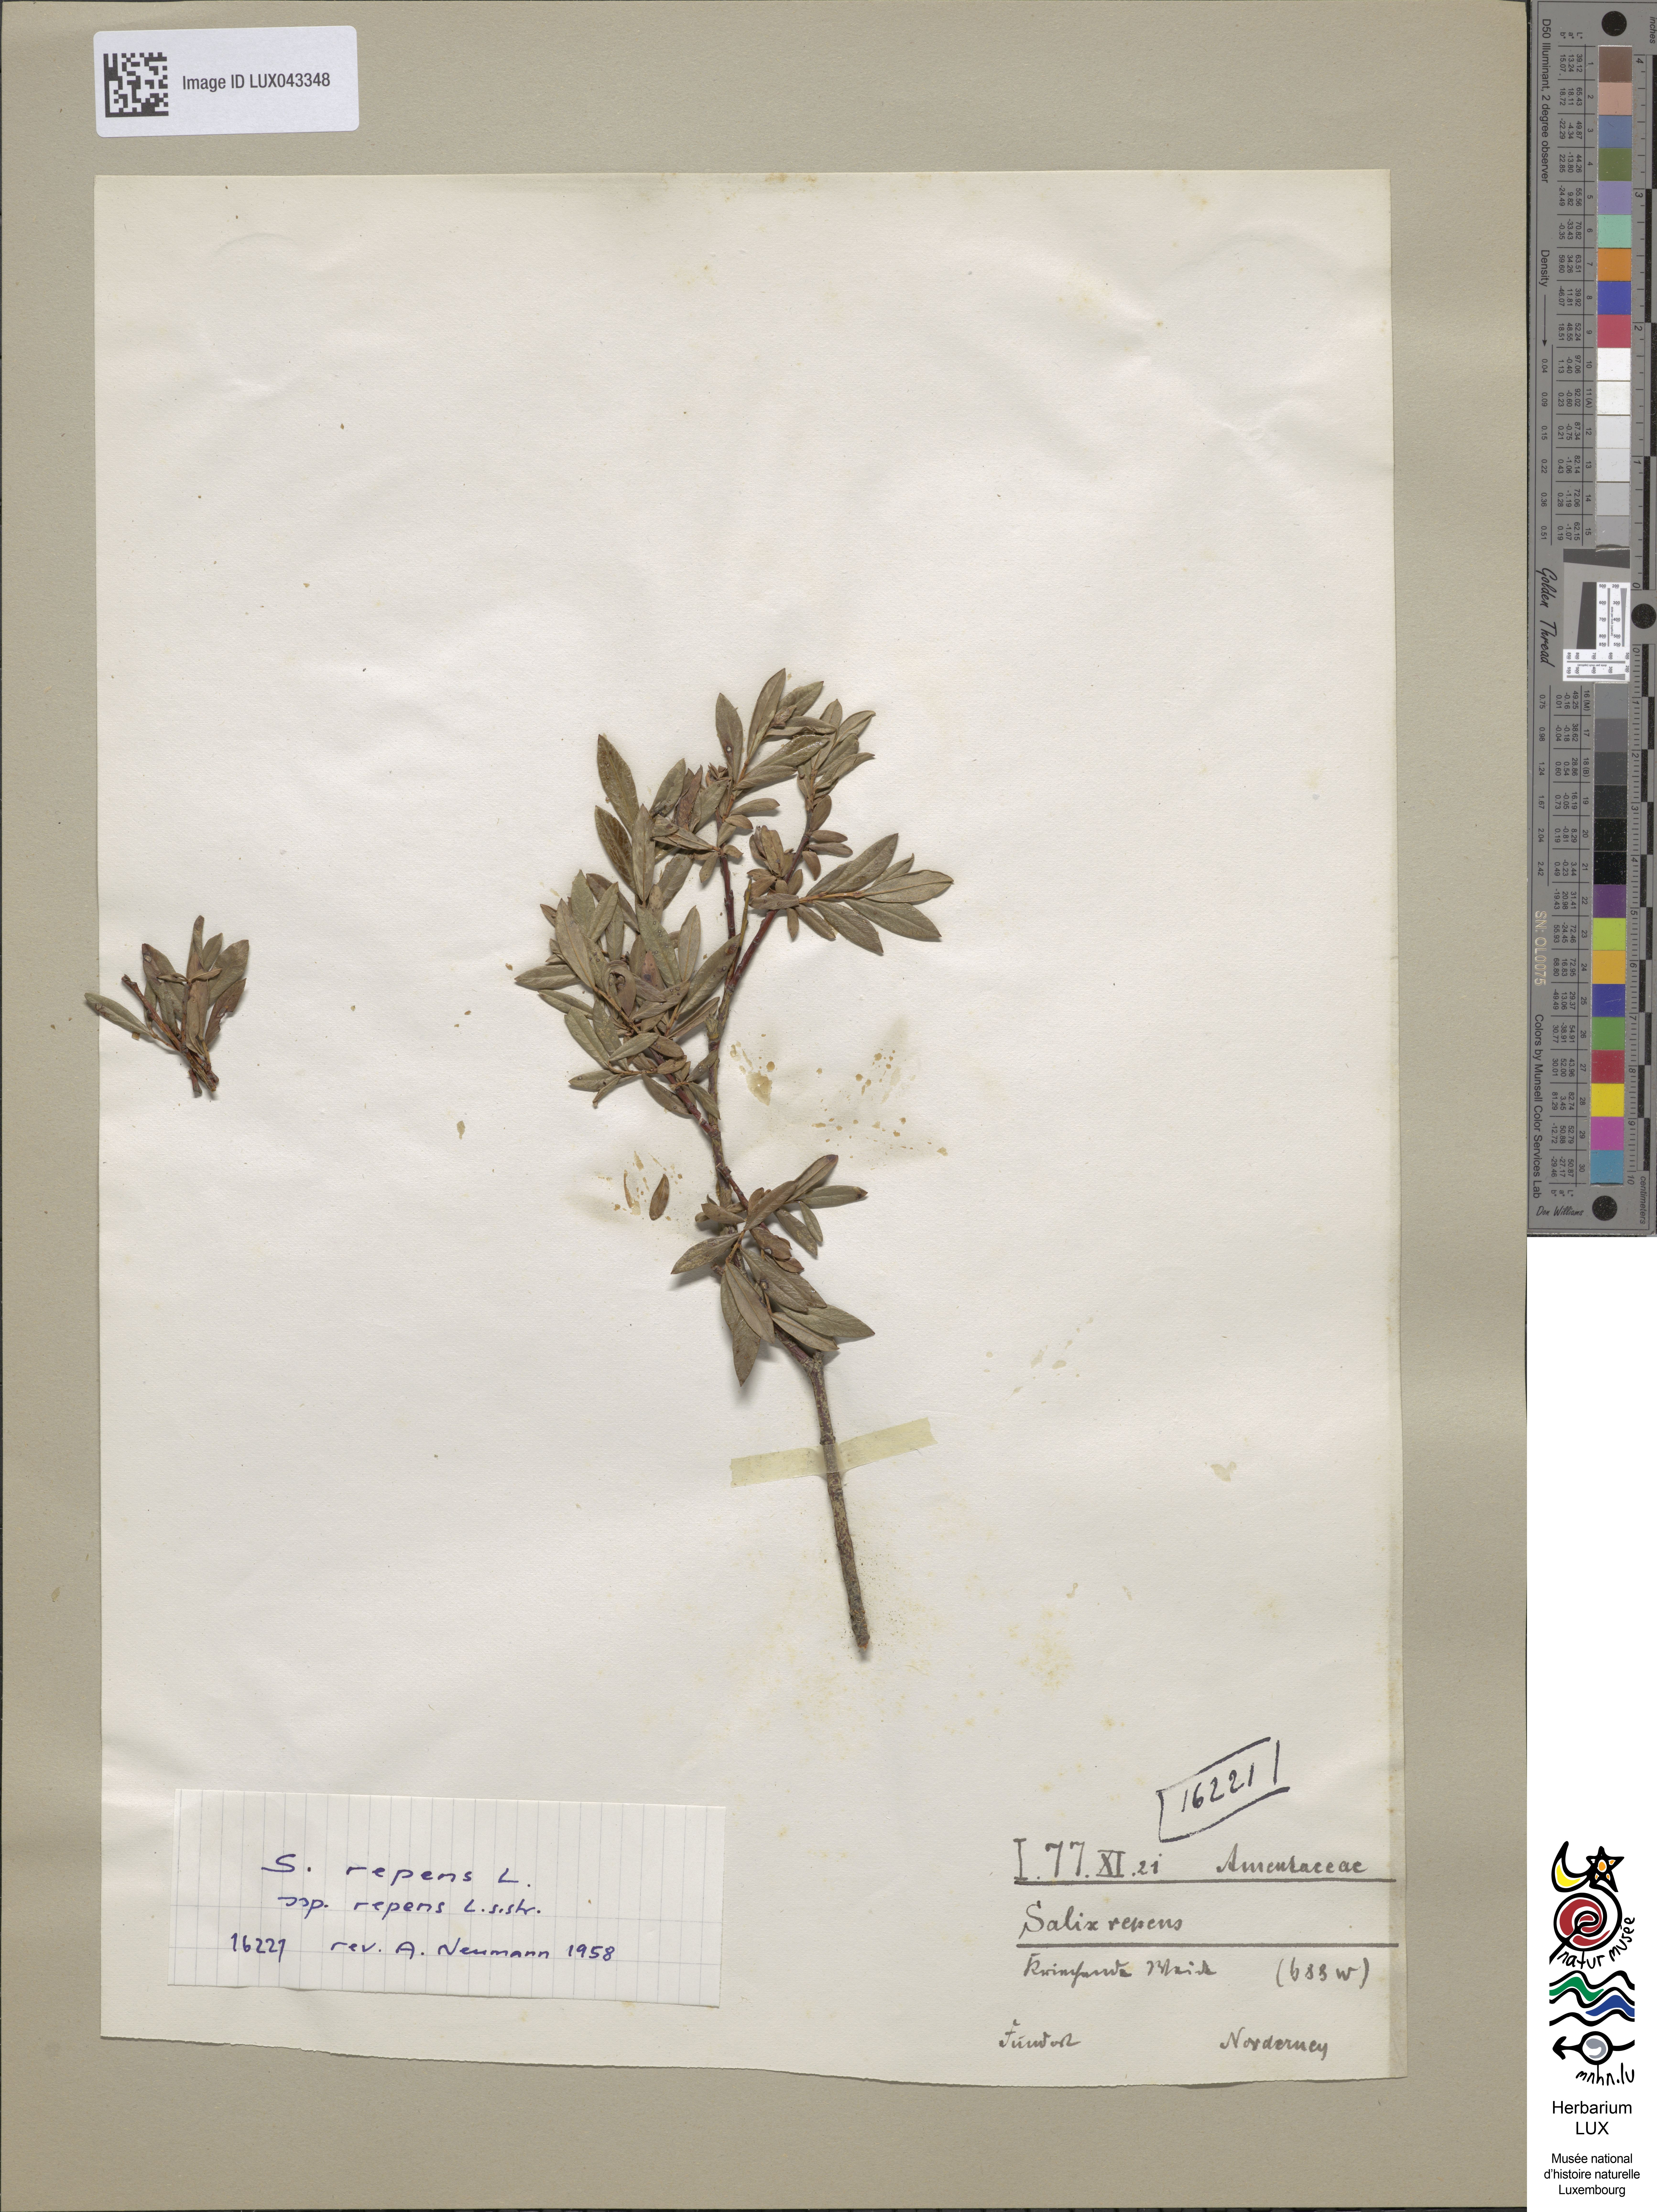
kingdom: Plantae
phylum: Tracheophyta
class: Magnoliopsida
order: Malpighiales
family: Salicaceae
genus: Salix
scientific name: Salix repens
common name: Creeping willow
